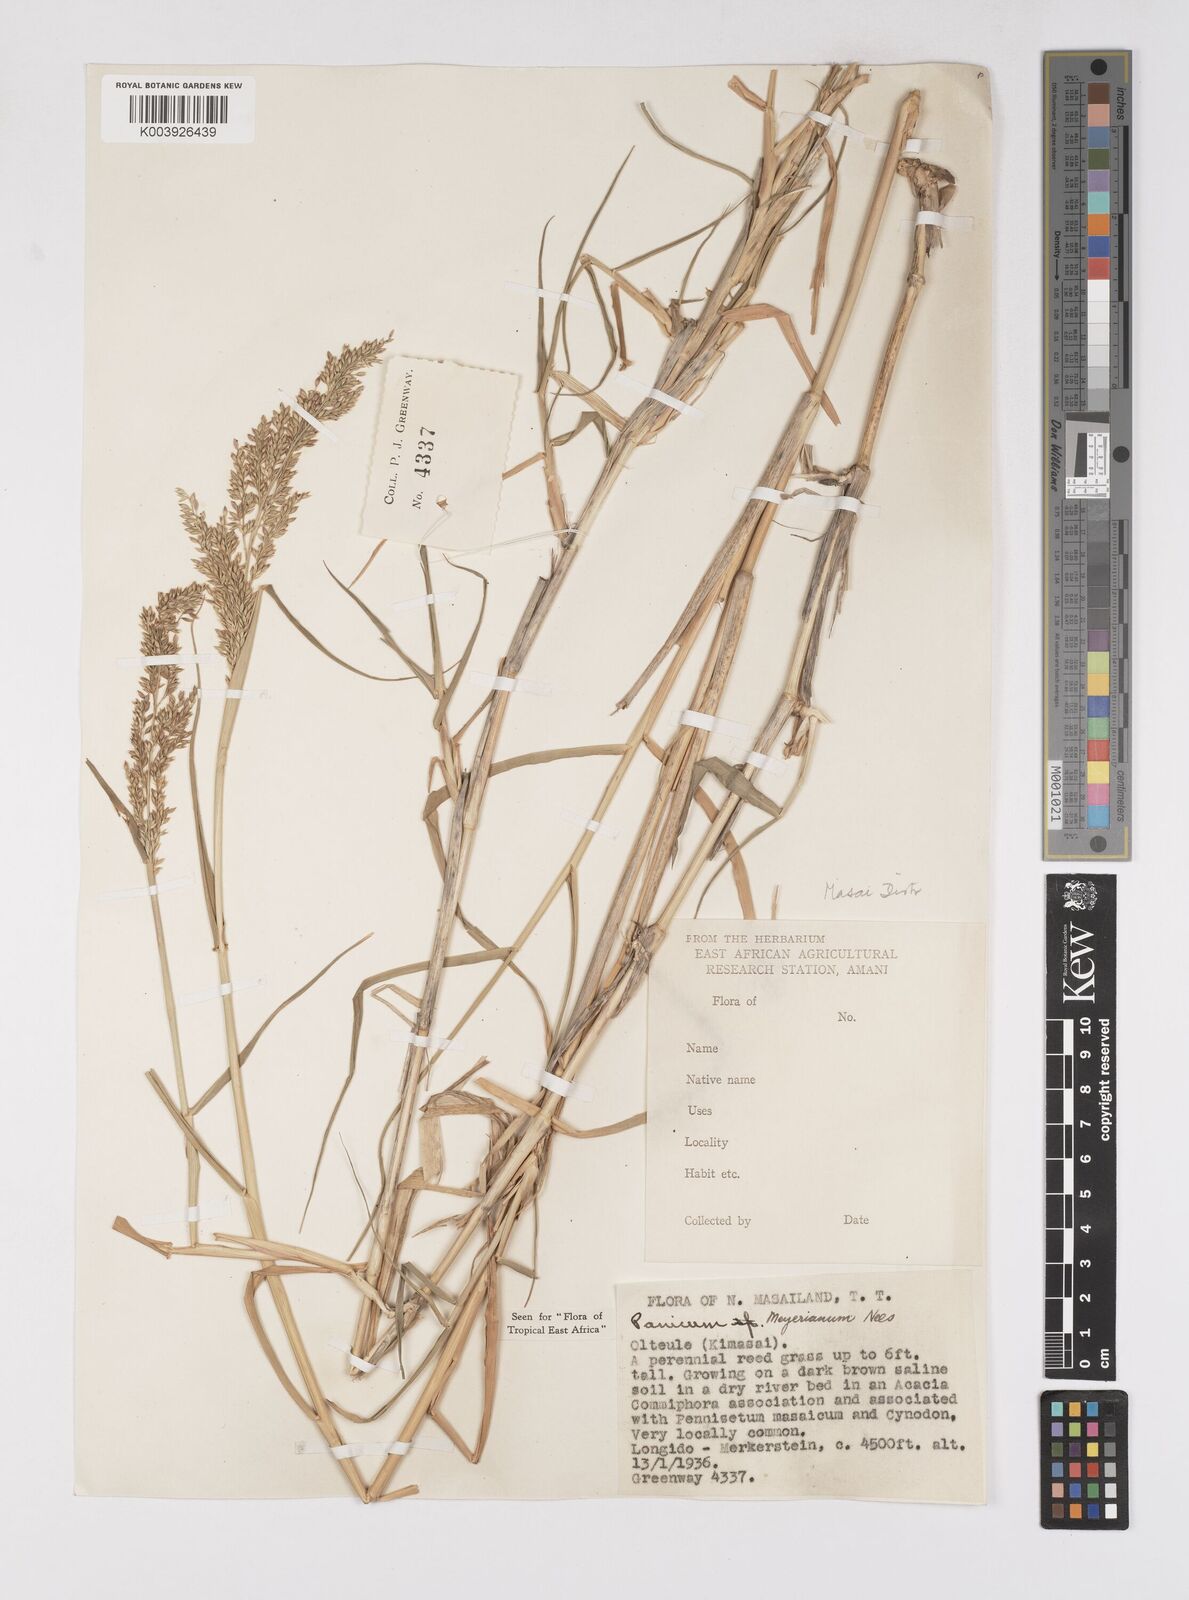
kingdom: Plantae
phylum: Tracheophyta
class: Liliopsida
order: Poales
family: Poaceae
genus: Eriochloa
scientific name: Eriochloa meyeriana
